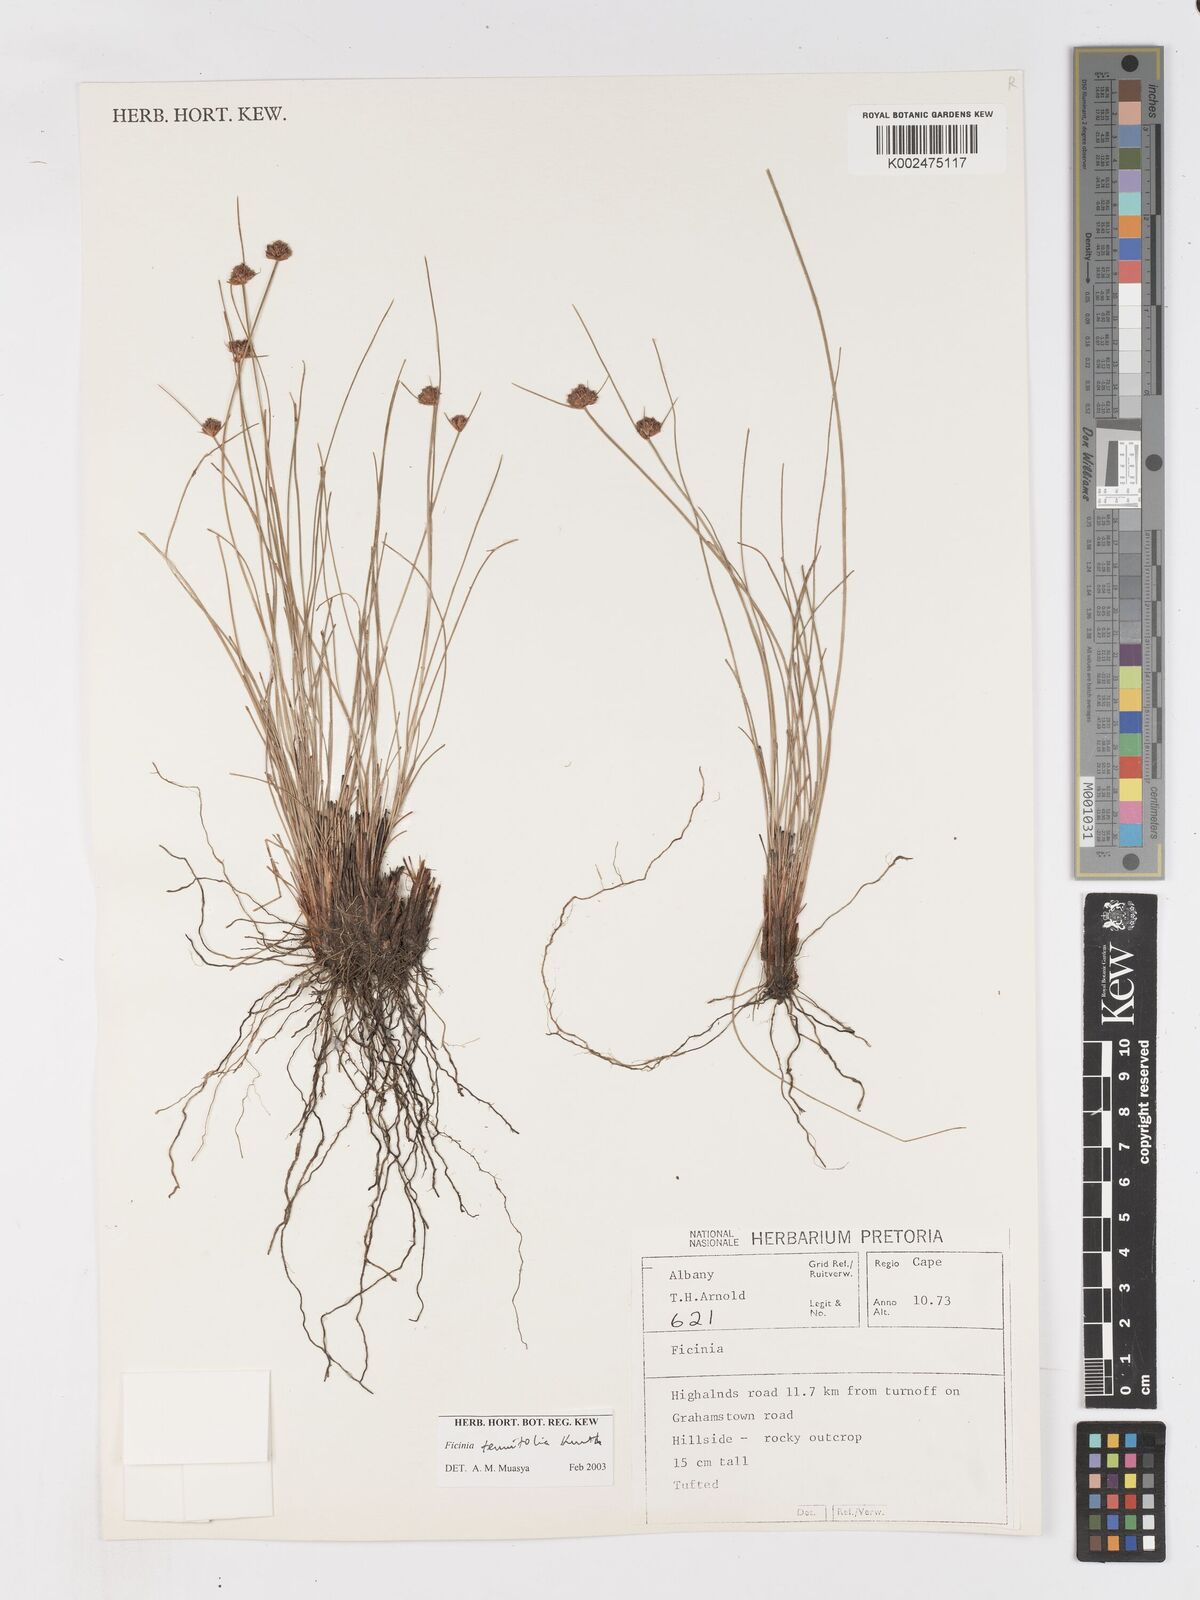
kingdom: Plantae
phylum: Tracheophyta
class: Liliopsida
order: Poales
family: Cyperaceae
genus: Ficinia
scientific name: Ficinia filiformis
